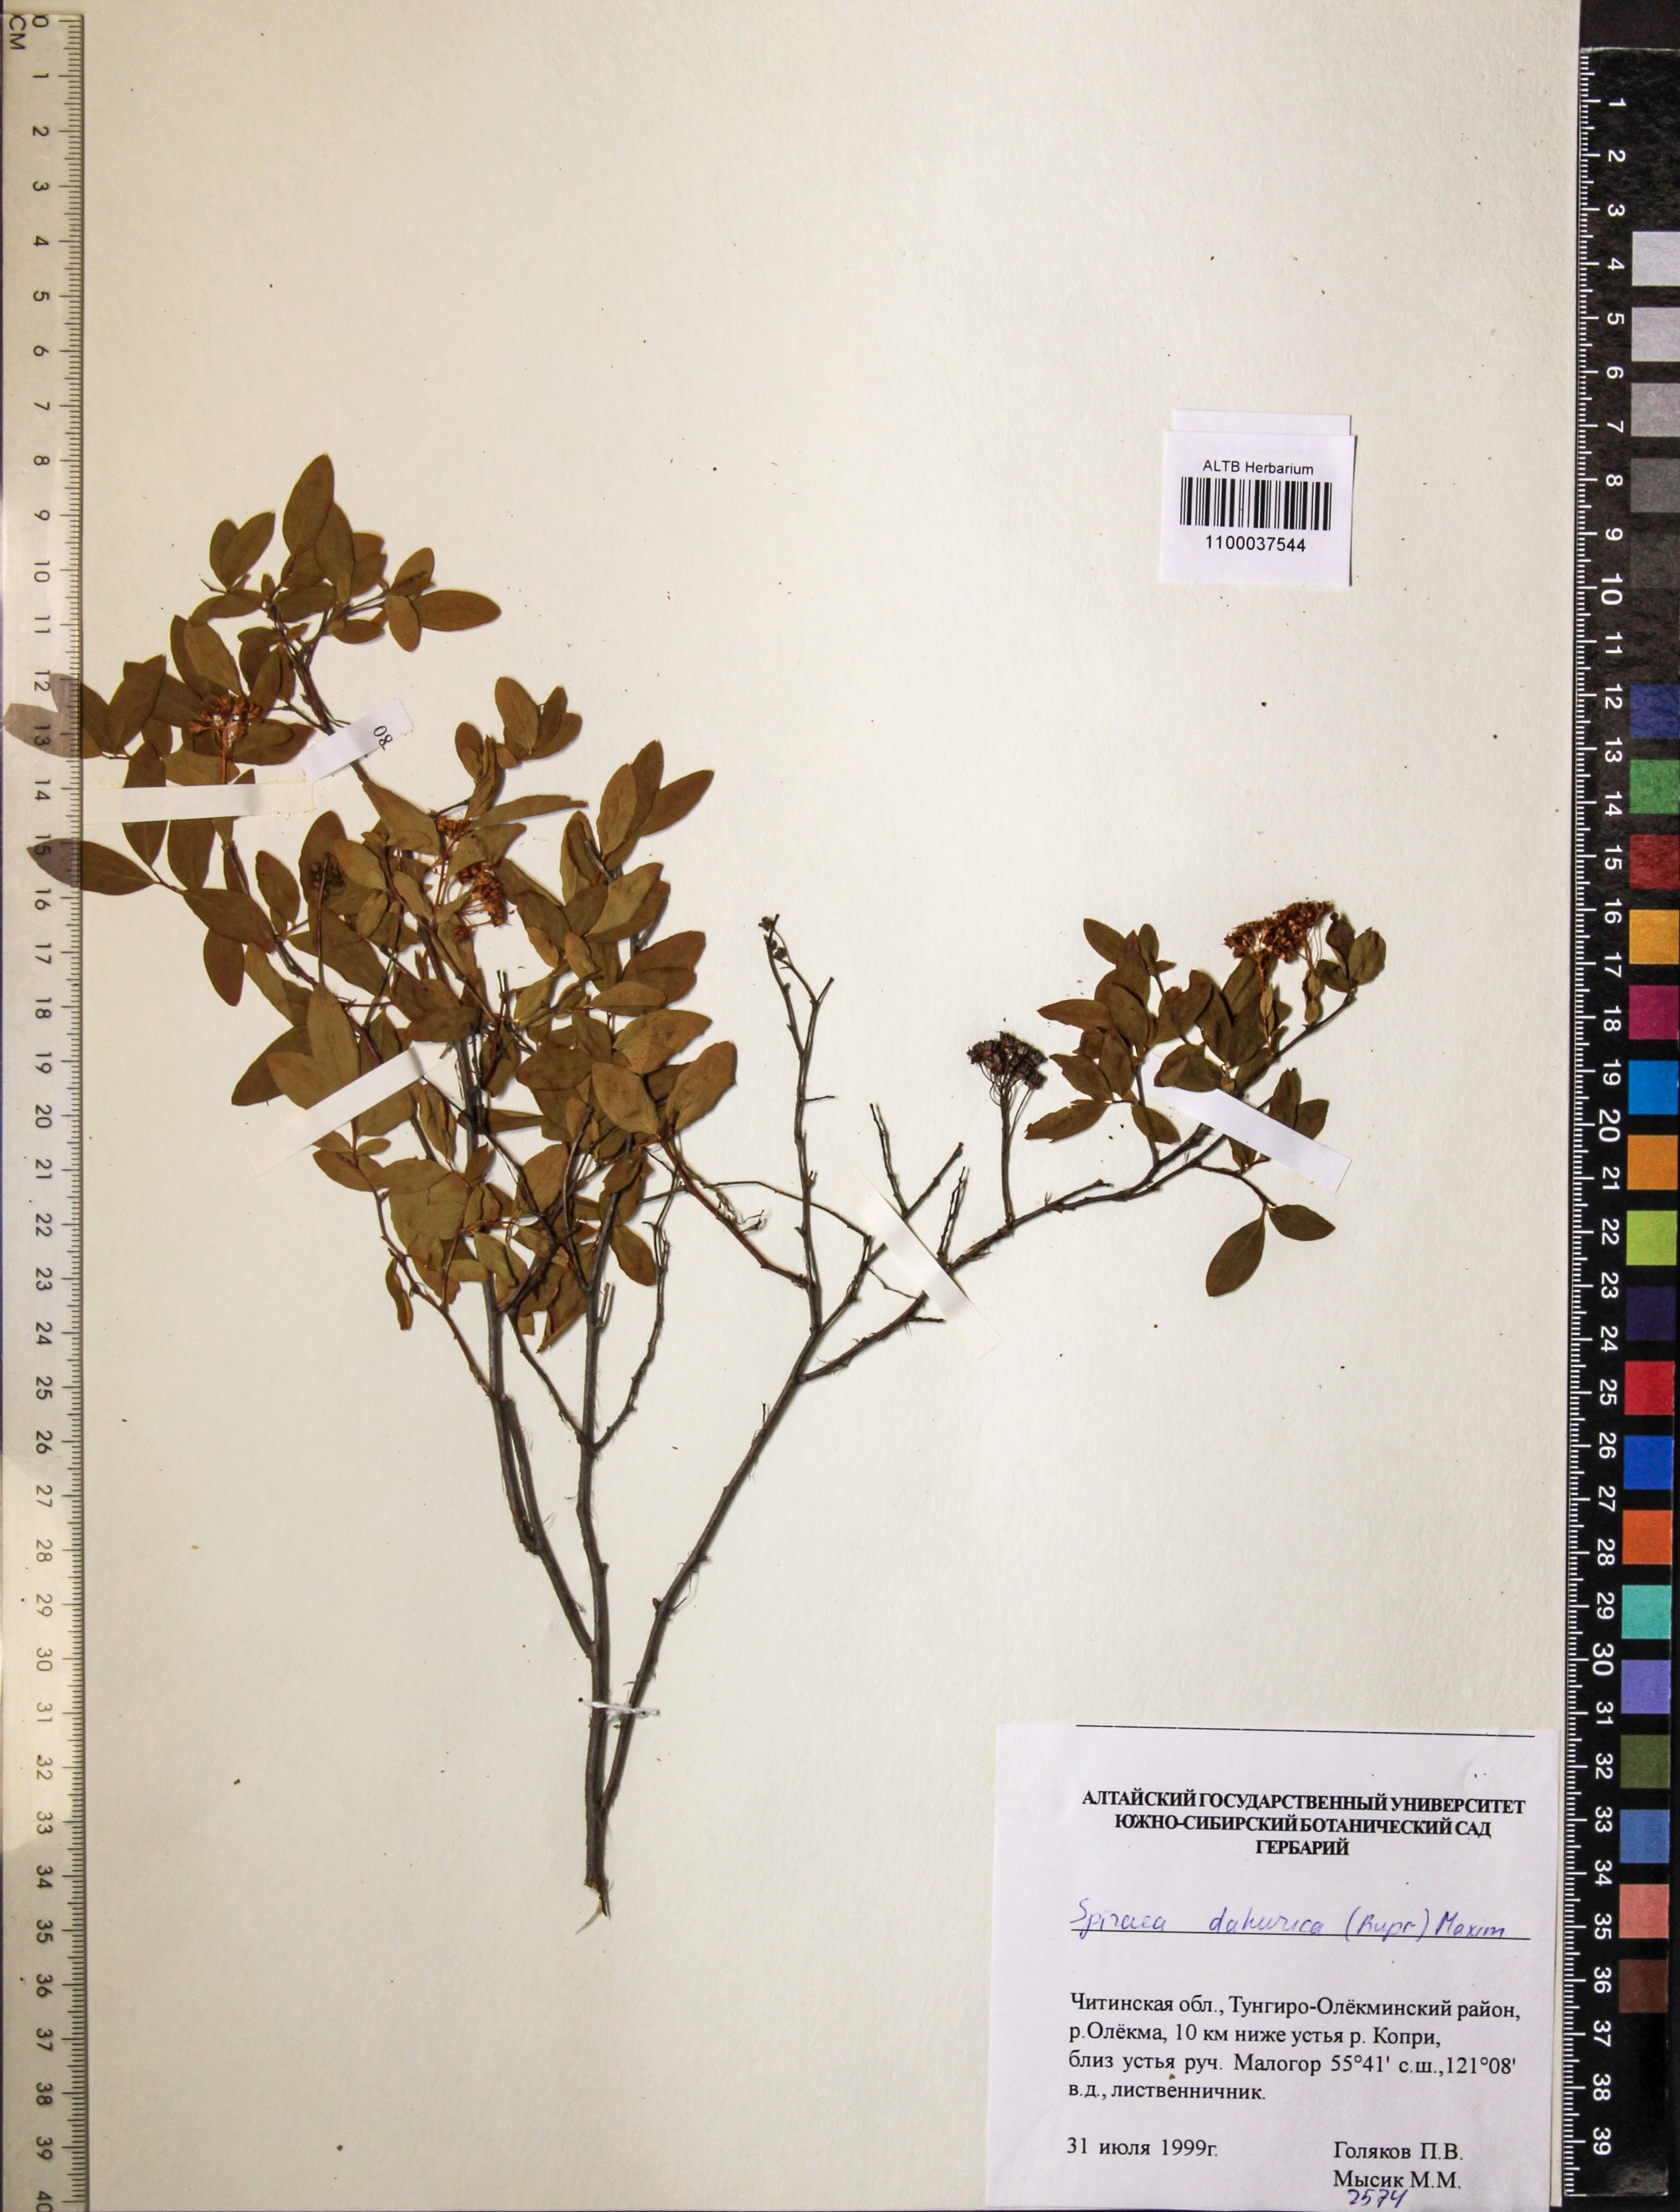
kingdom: Plantae
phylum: Tracheophyta
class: Magnoliopsida
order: Rosales
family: Rosaceae
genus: Spiraea
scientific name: Spiraea dahurica
